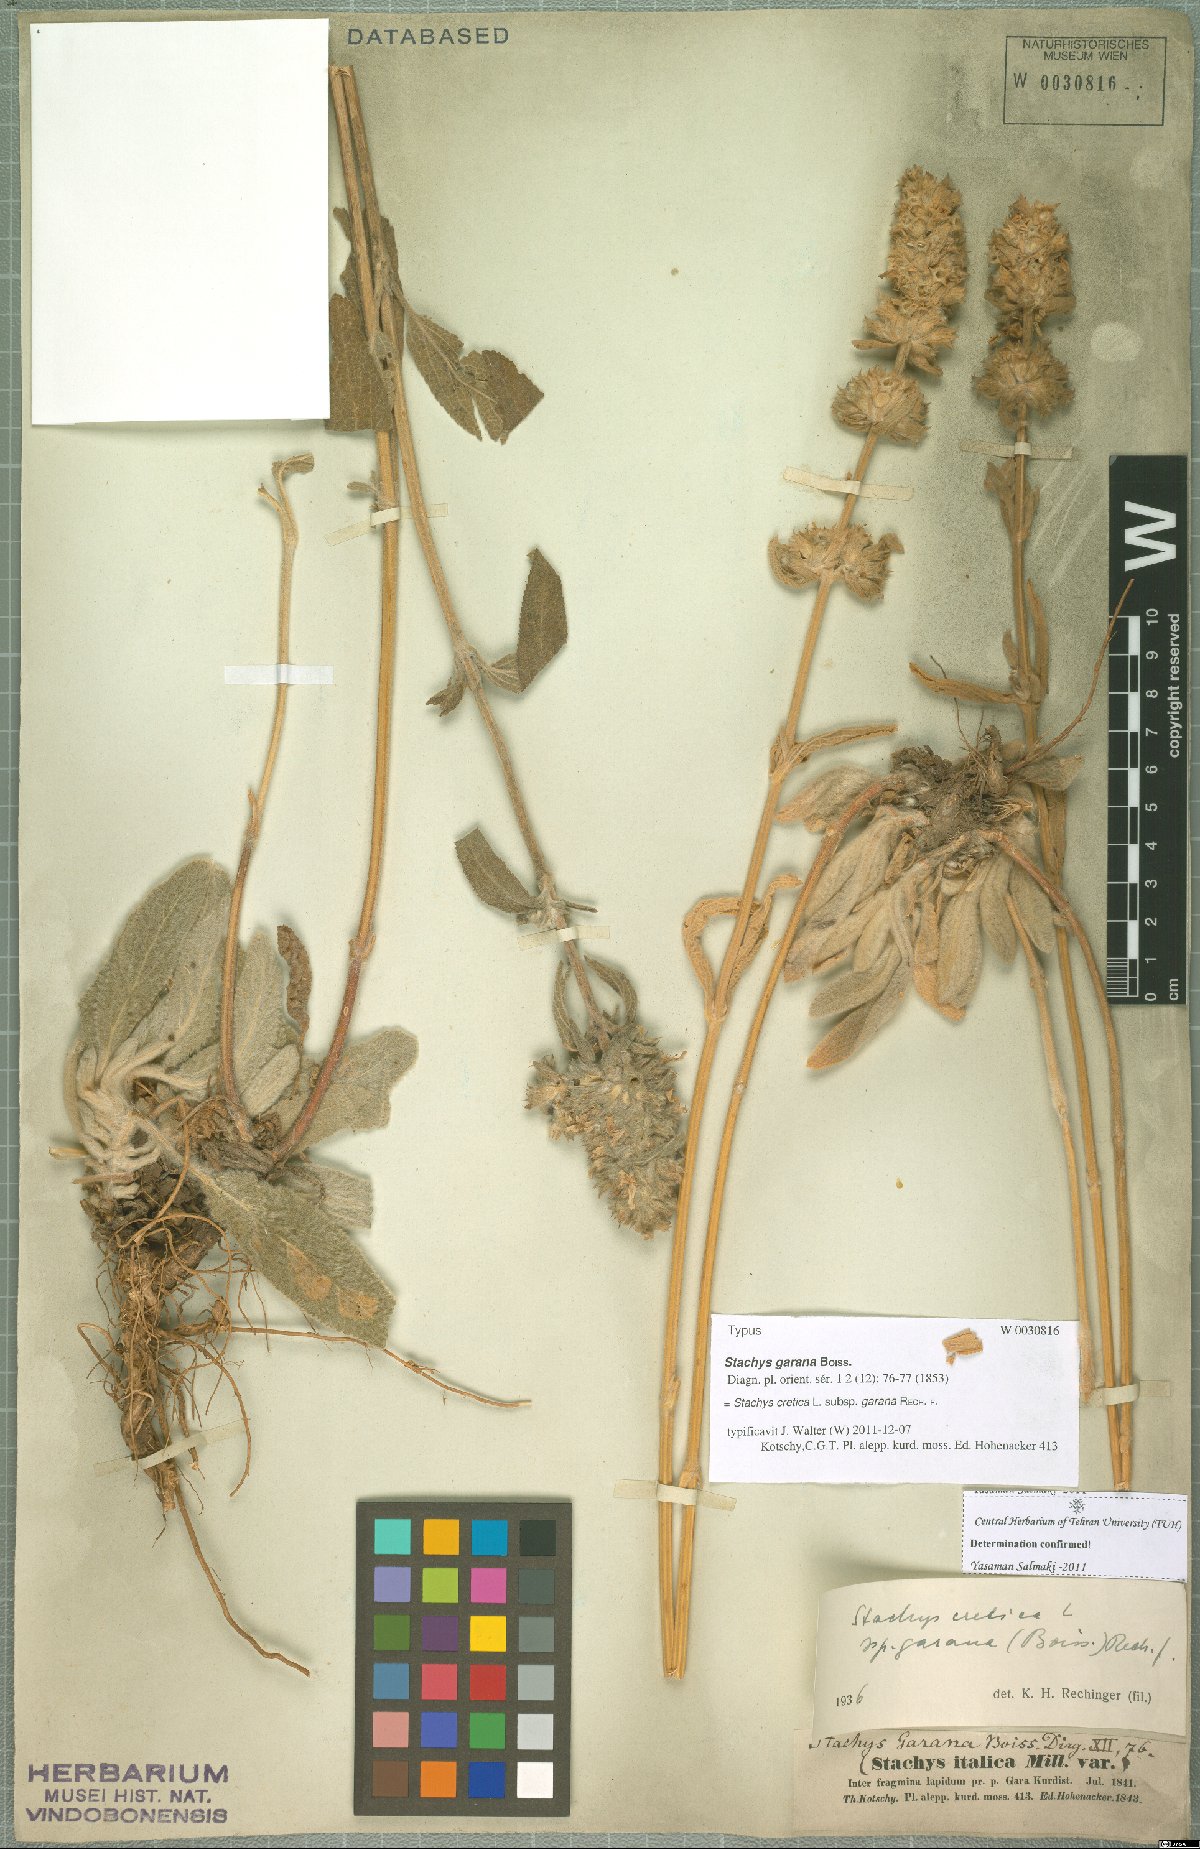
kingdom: Plantae
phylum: Tracheophyta
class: Magnoliopsida
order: Lamiales
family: Lamiaceae
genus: Stachys
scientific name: Stachys cretica
